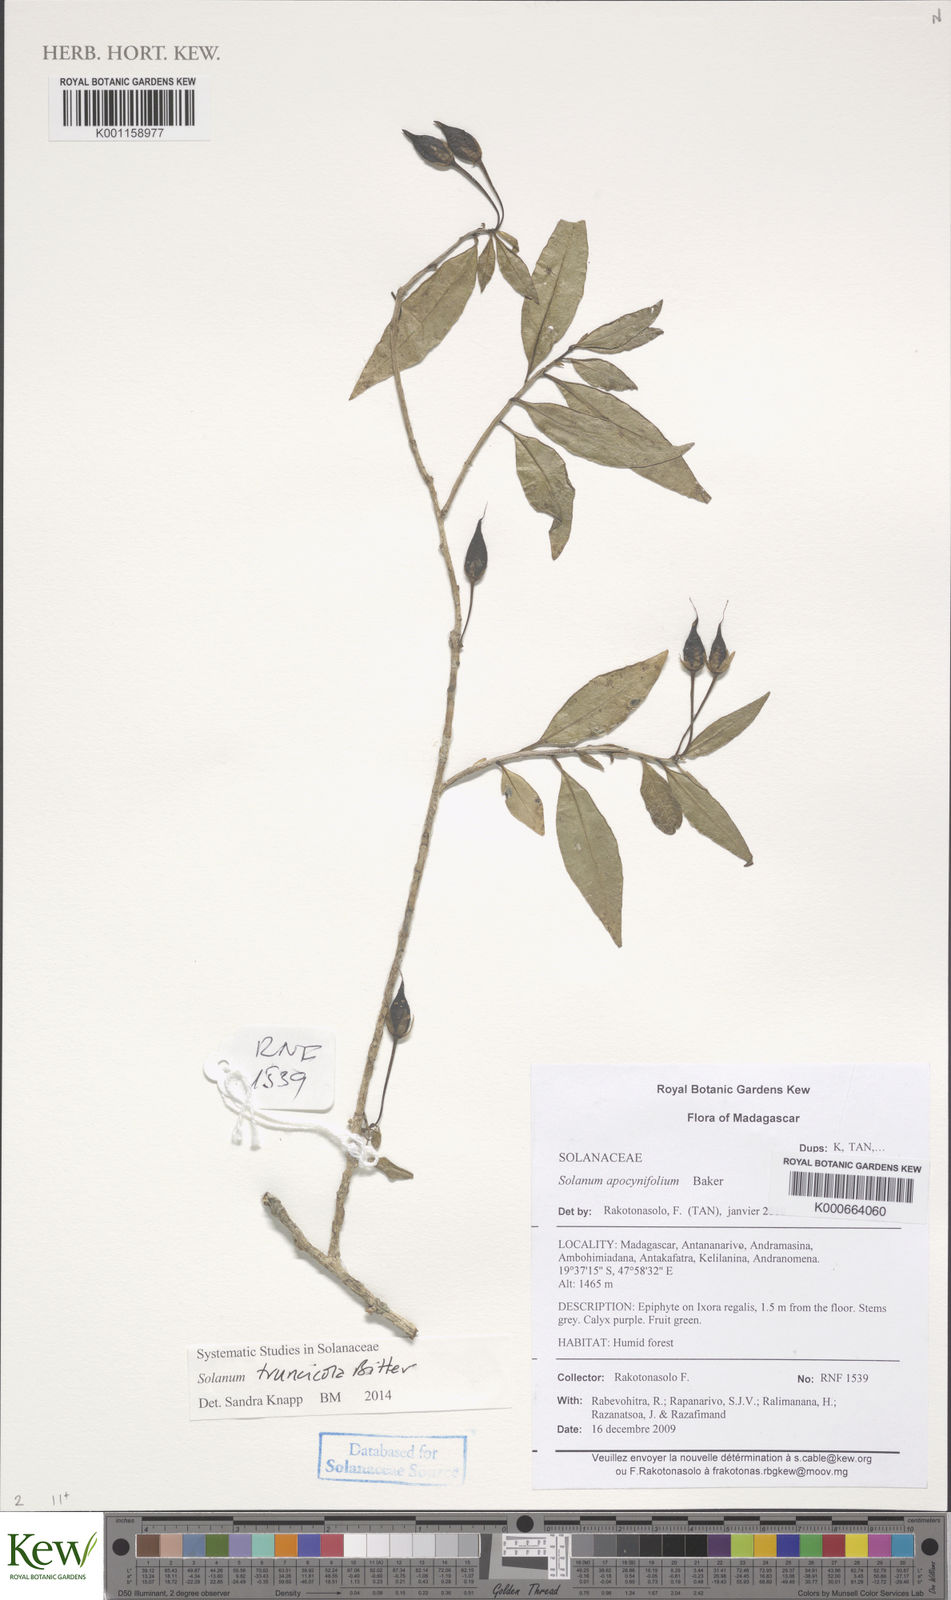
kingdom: Plantae
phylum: Tracheophyta
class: Magnoliopsida
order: Solanales
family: Solanaceae
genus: Solanum
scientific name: Solanum humblotii
